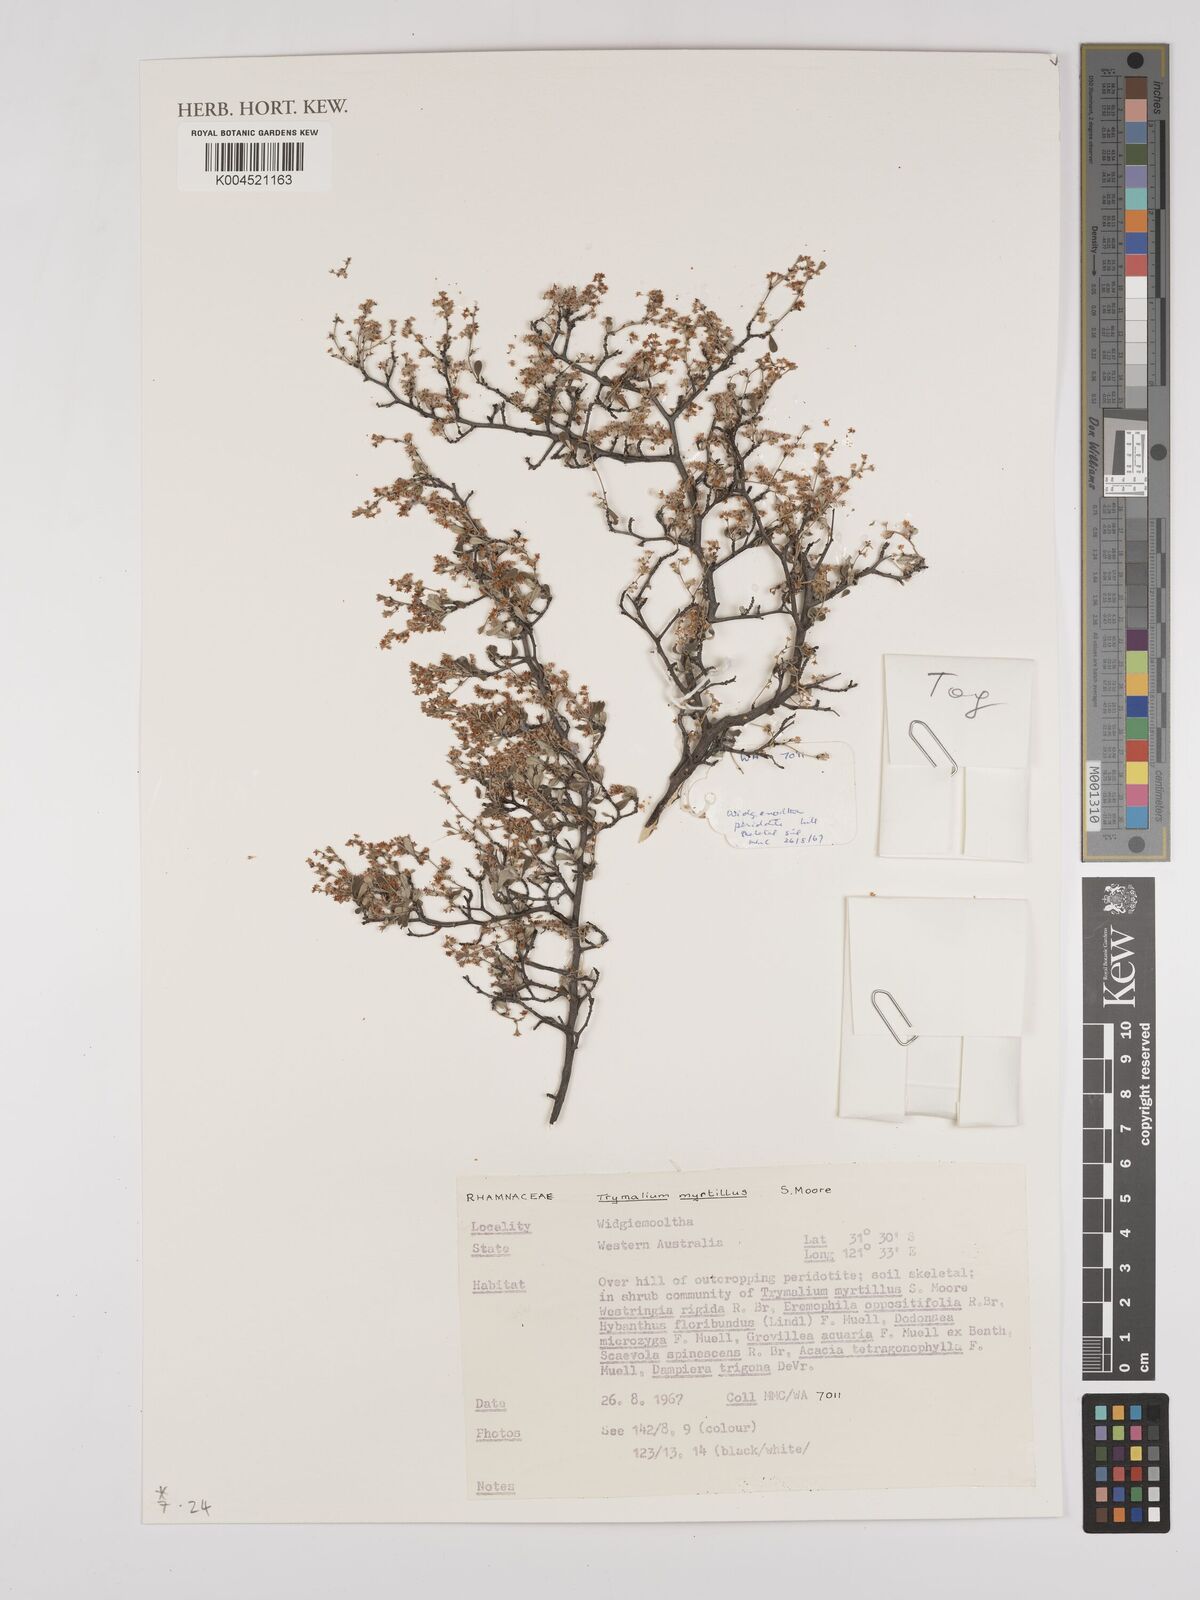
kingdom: Plantae
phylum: Tracheophyta
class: Magnoliopsida
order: Rosales
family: Rhamnaceae
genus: Trymalium
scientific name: Trymalium myrtillus
